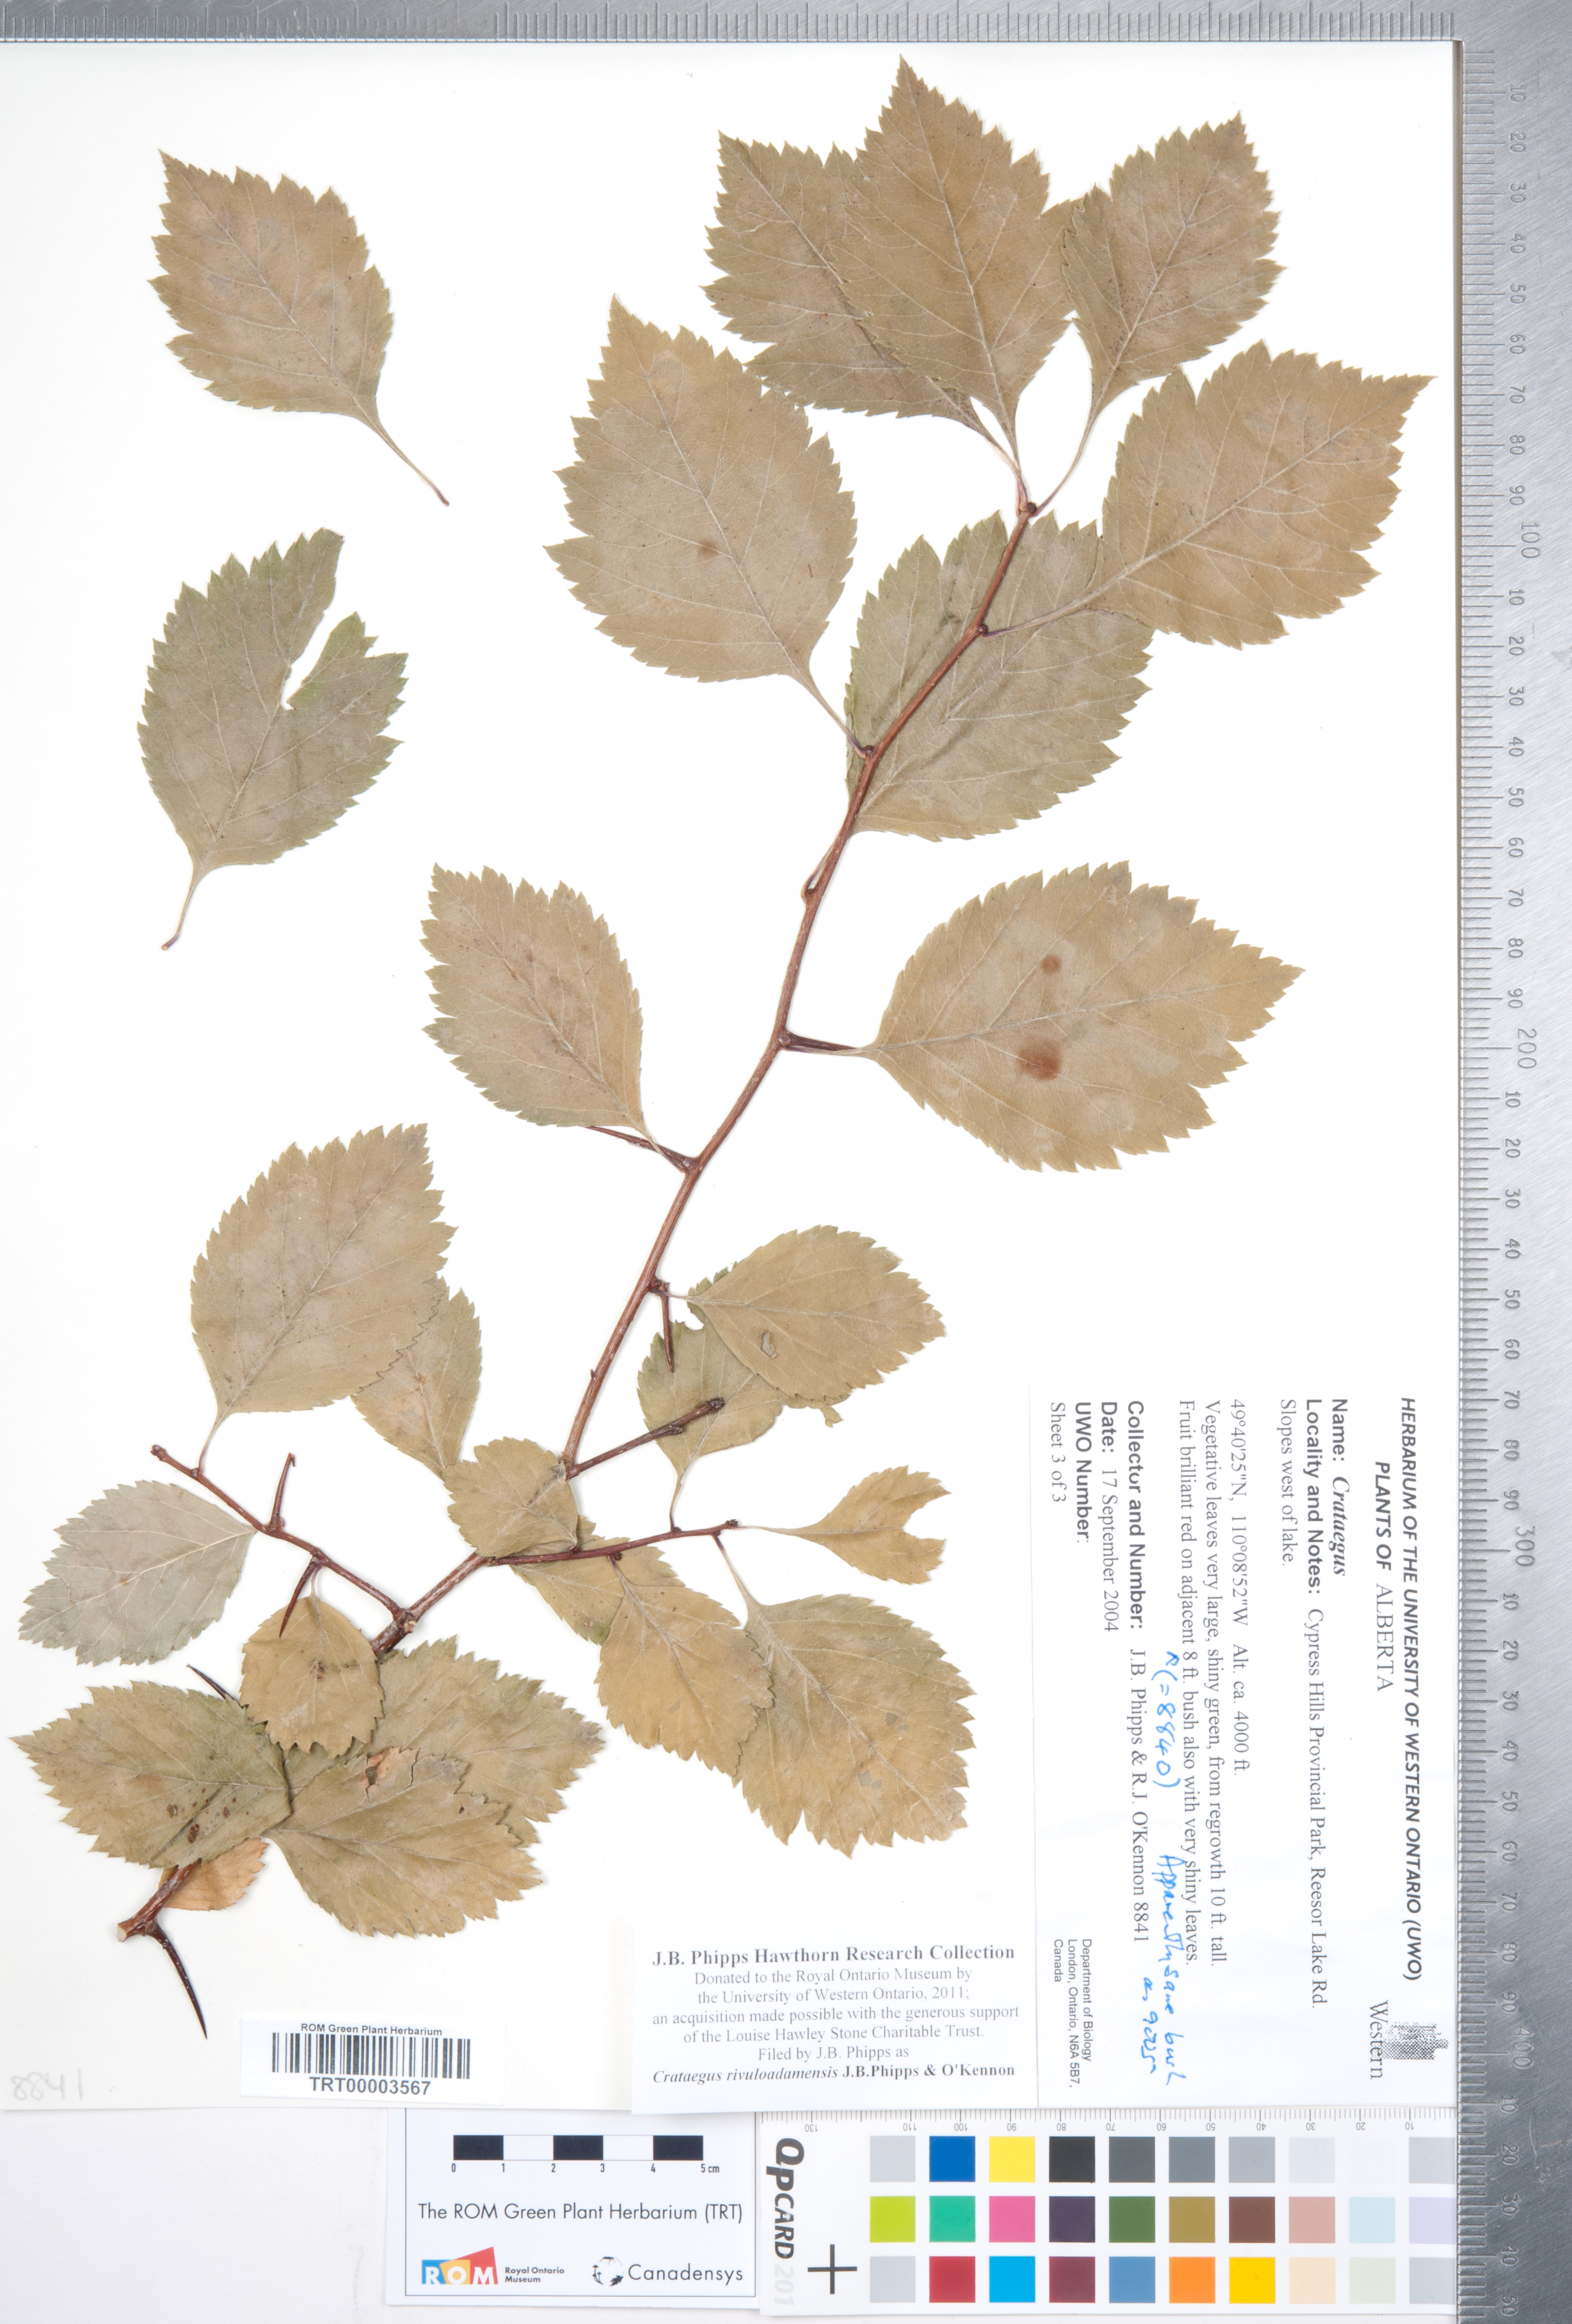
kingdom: Plantae
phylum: Tracheophyta
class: Magnoliopsida
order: Rosales
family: Rosaceae
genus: Crataegus
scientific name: Crataegus rivuloadamensis
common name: Adams creek hawthorn
